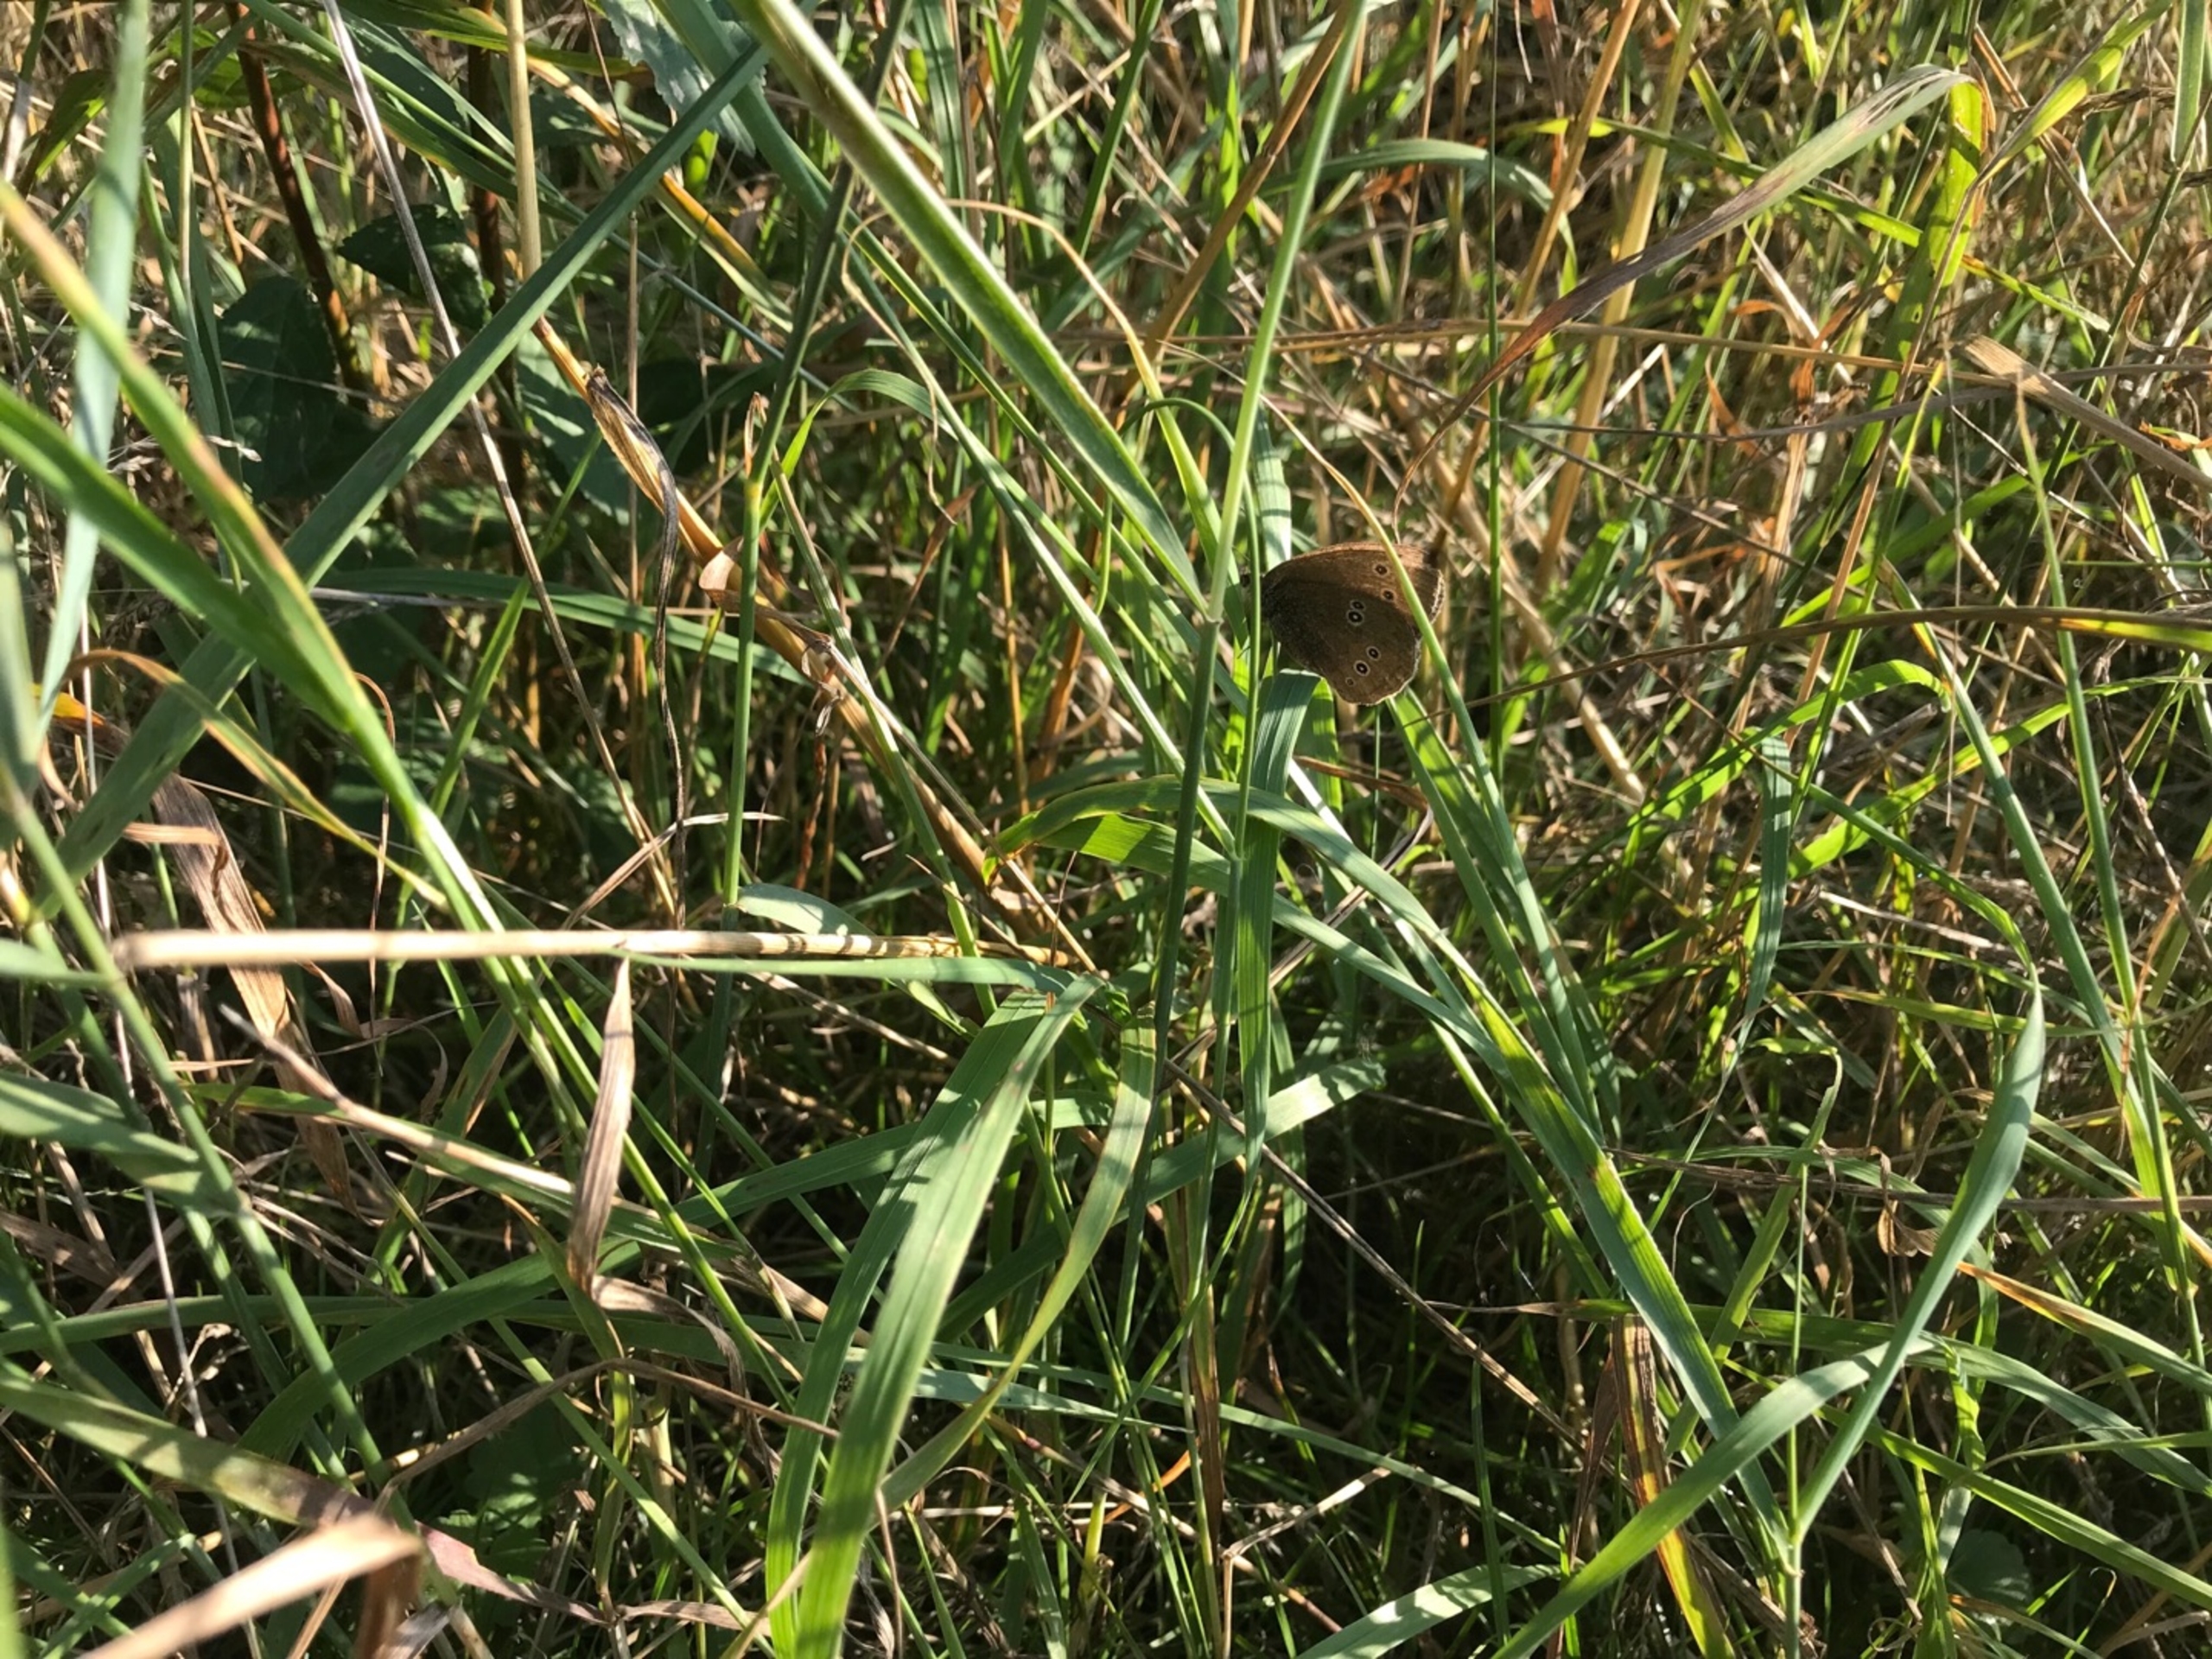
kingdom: Animalia
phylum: Arthropoda
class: Insecta
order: Lepidoptera
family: Nymphalidae
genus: Aphantopus
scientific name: Aphantopus hyperantus
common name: Engrandøje
